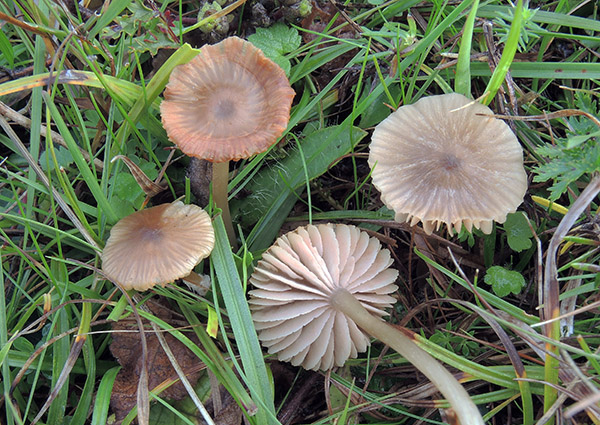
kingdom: Fungi
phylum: Basidiomycota
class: Agaricomycetes
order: Agaricales
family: Entolomataceae
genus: Entoloma
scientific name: Entoloma lunare
